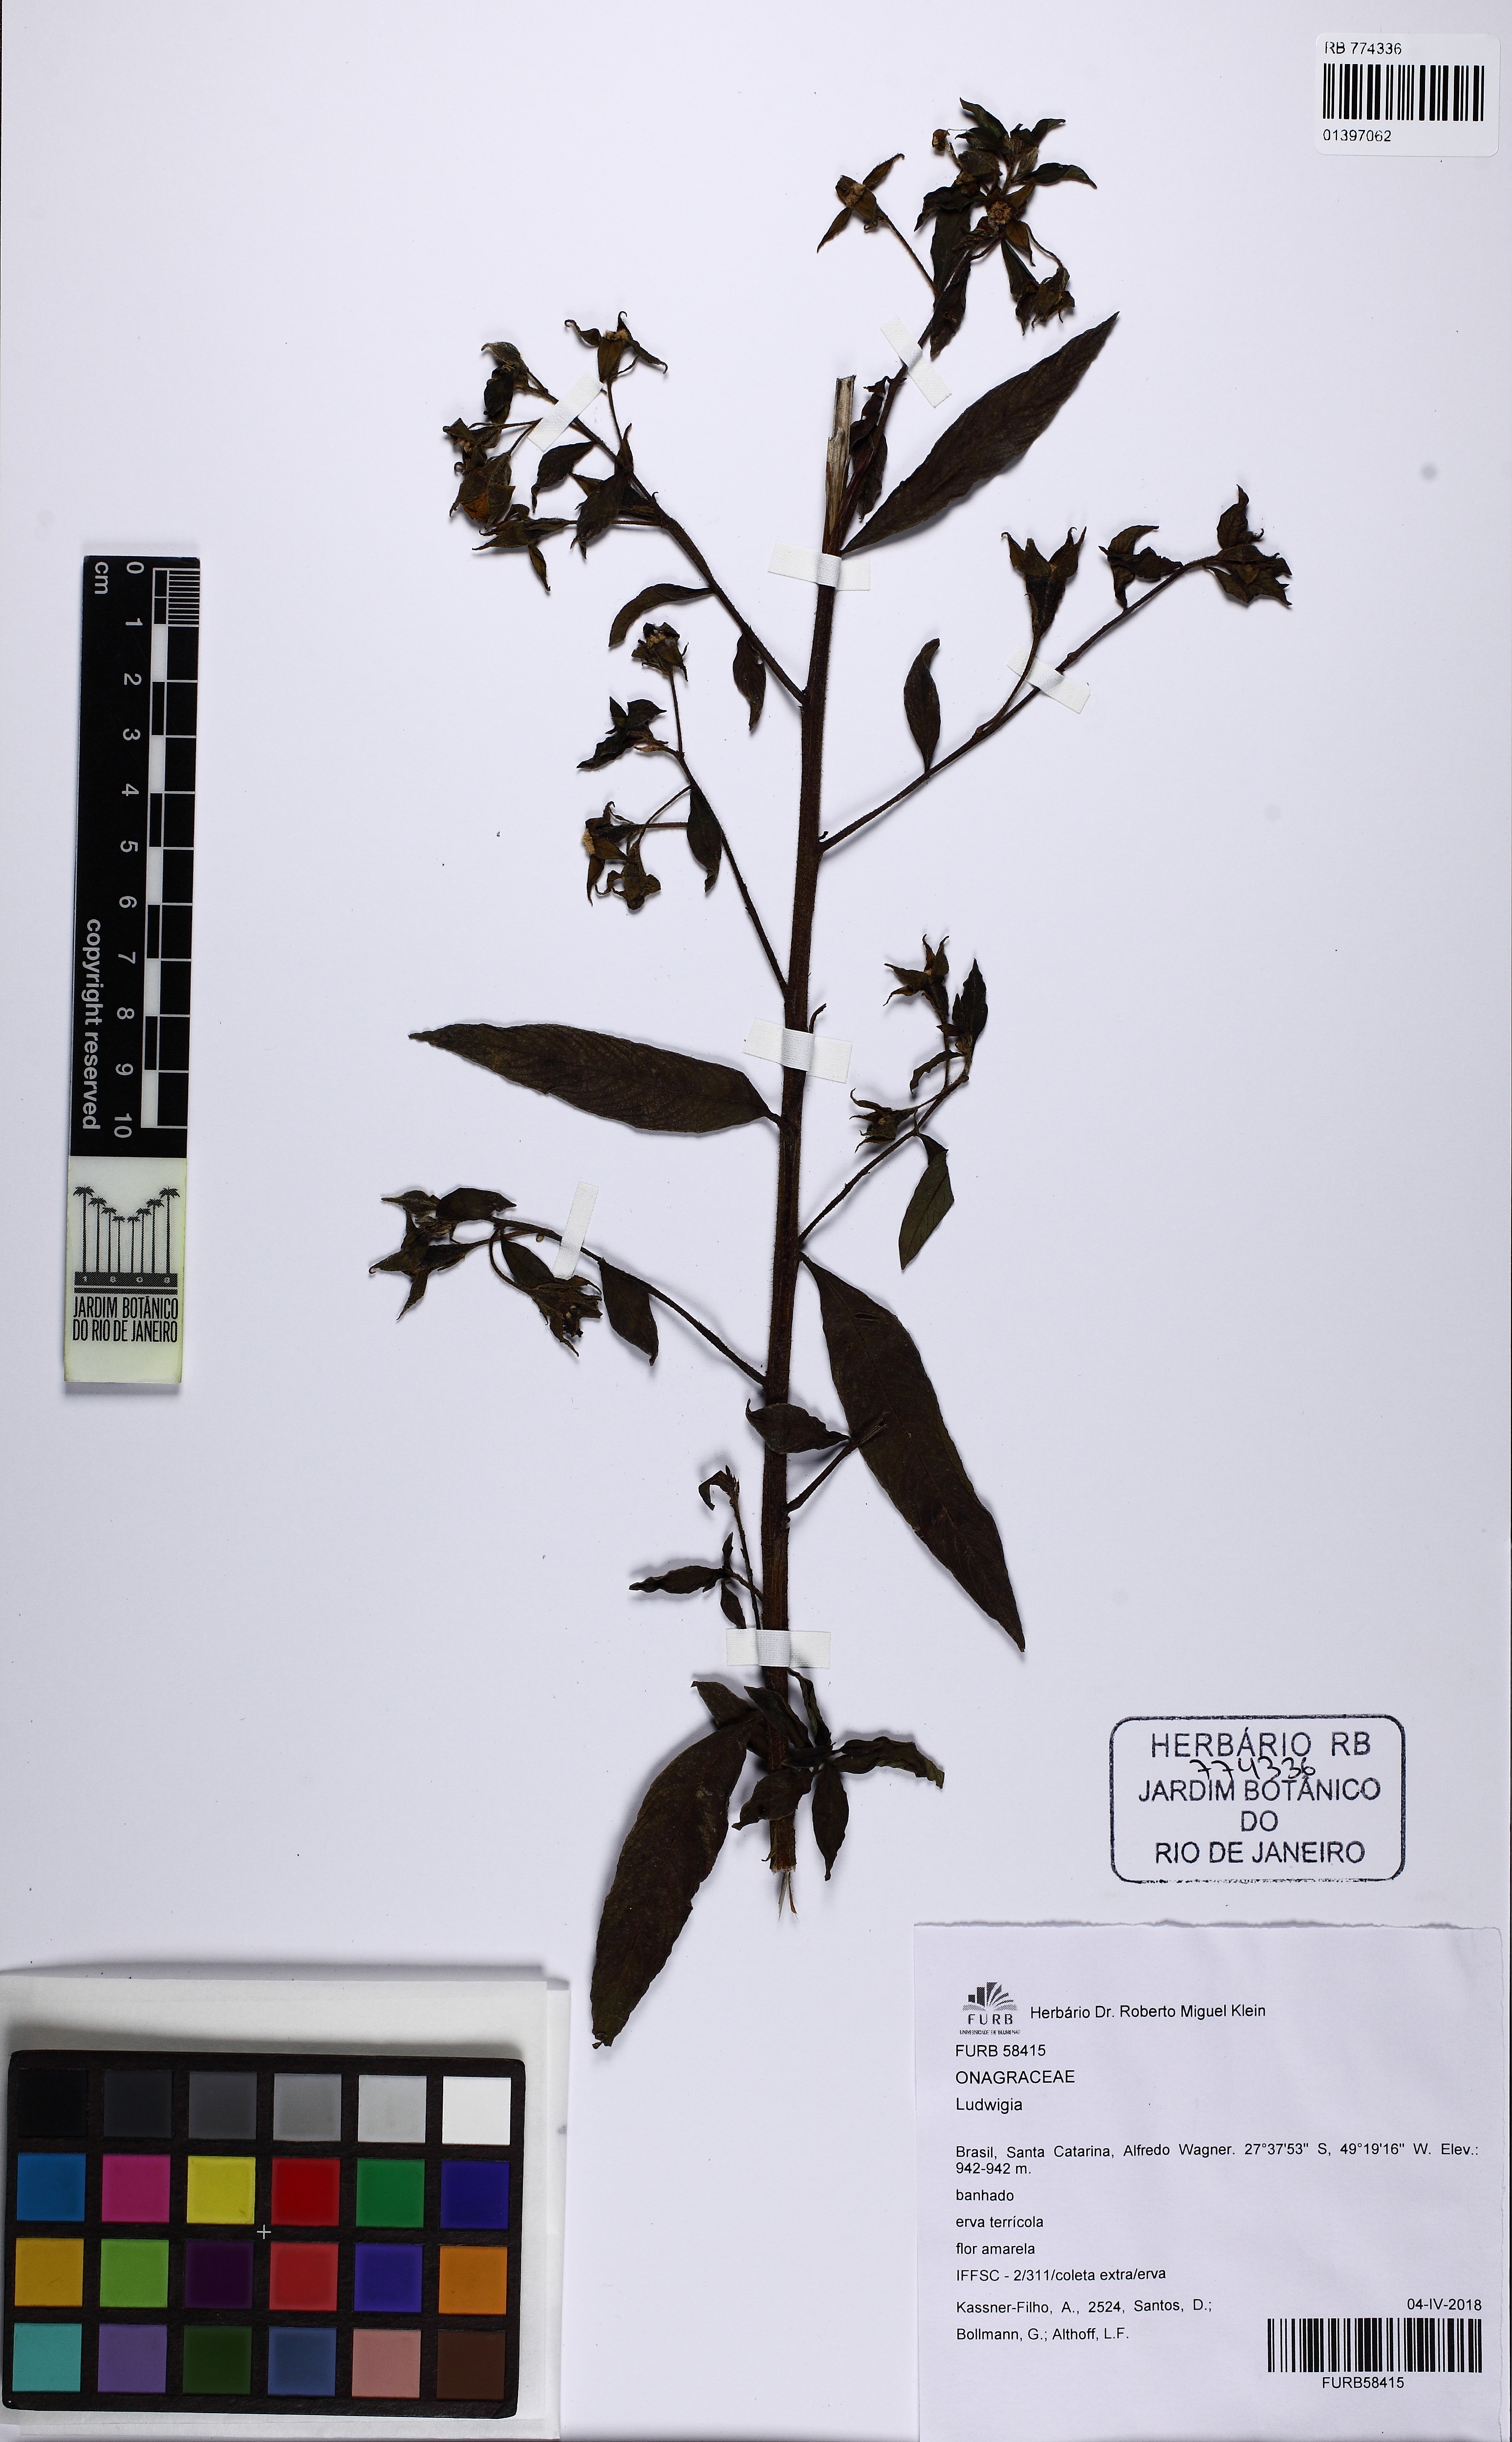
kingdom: Plantae
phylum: Tracheophyta
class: Magnoliopsida
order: Myrtales
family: Onagraceae
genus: Ludwigia
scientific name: Ludwigia
